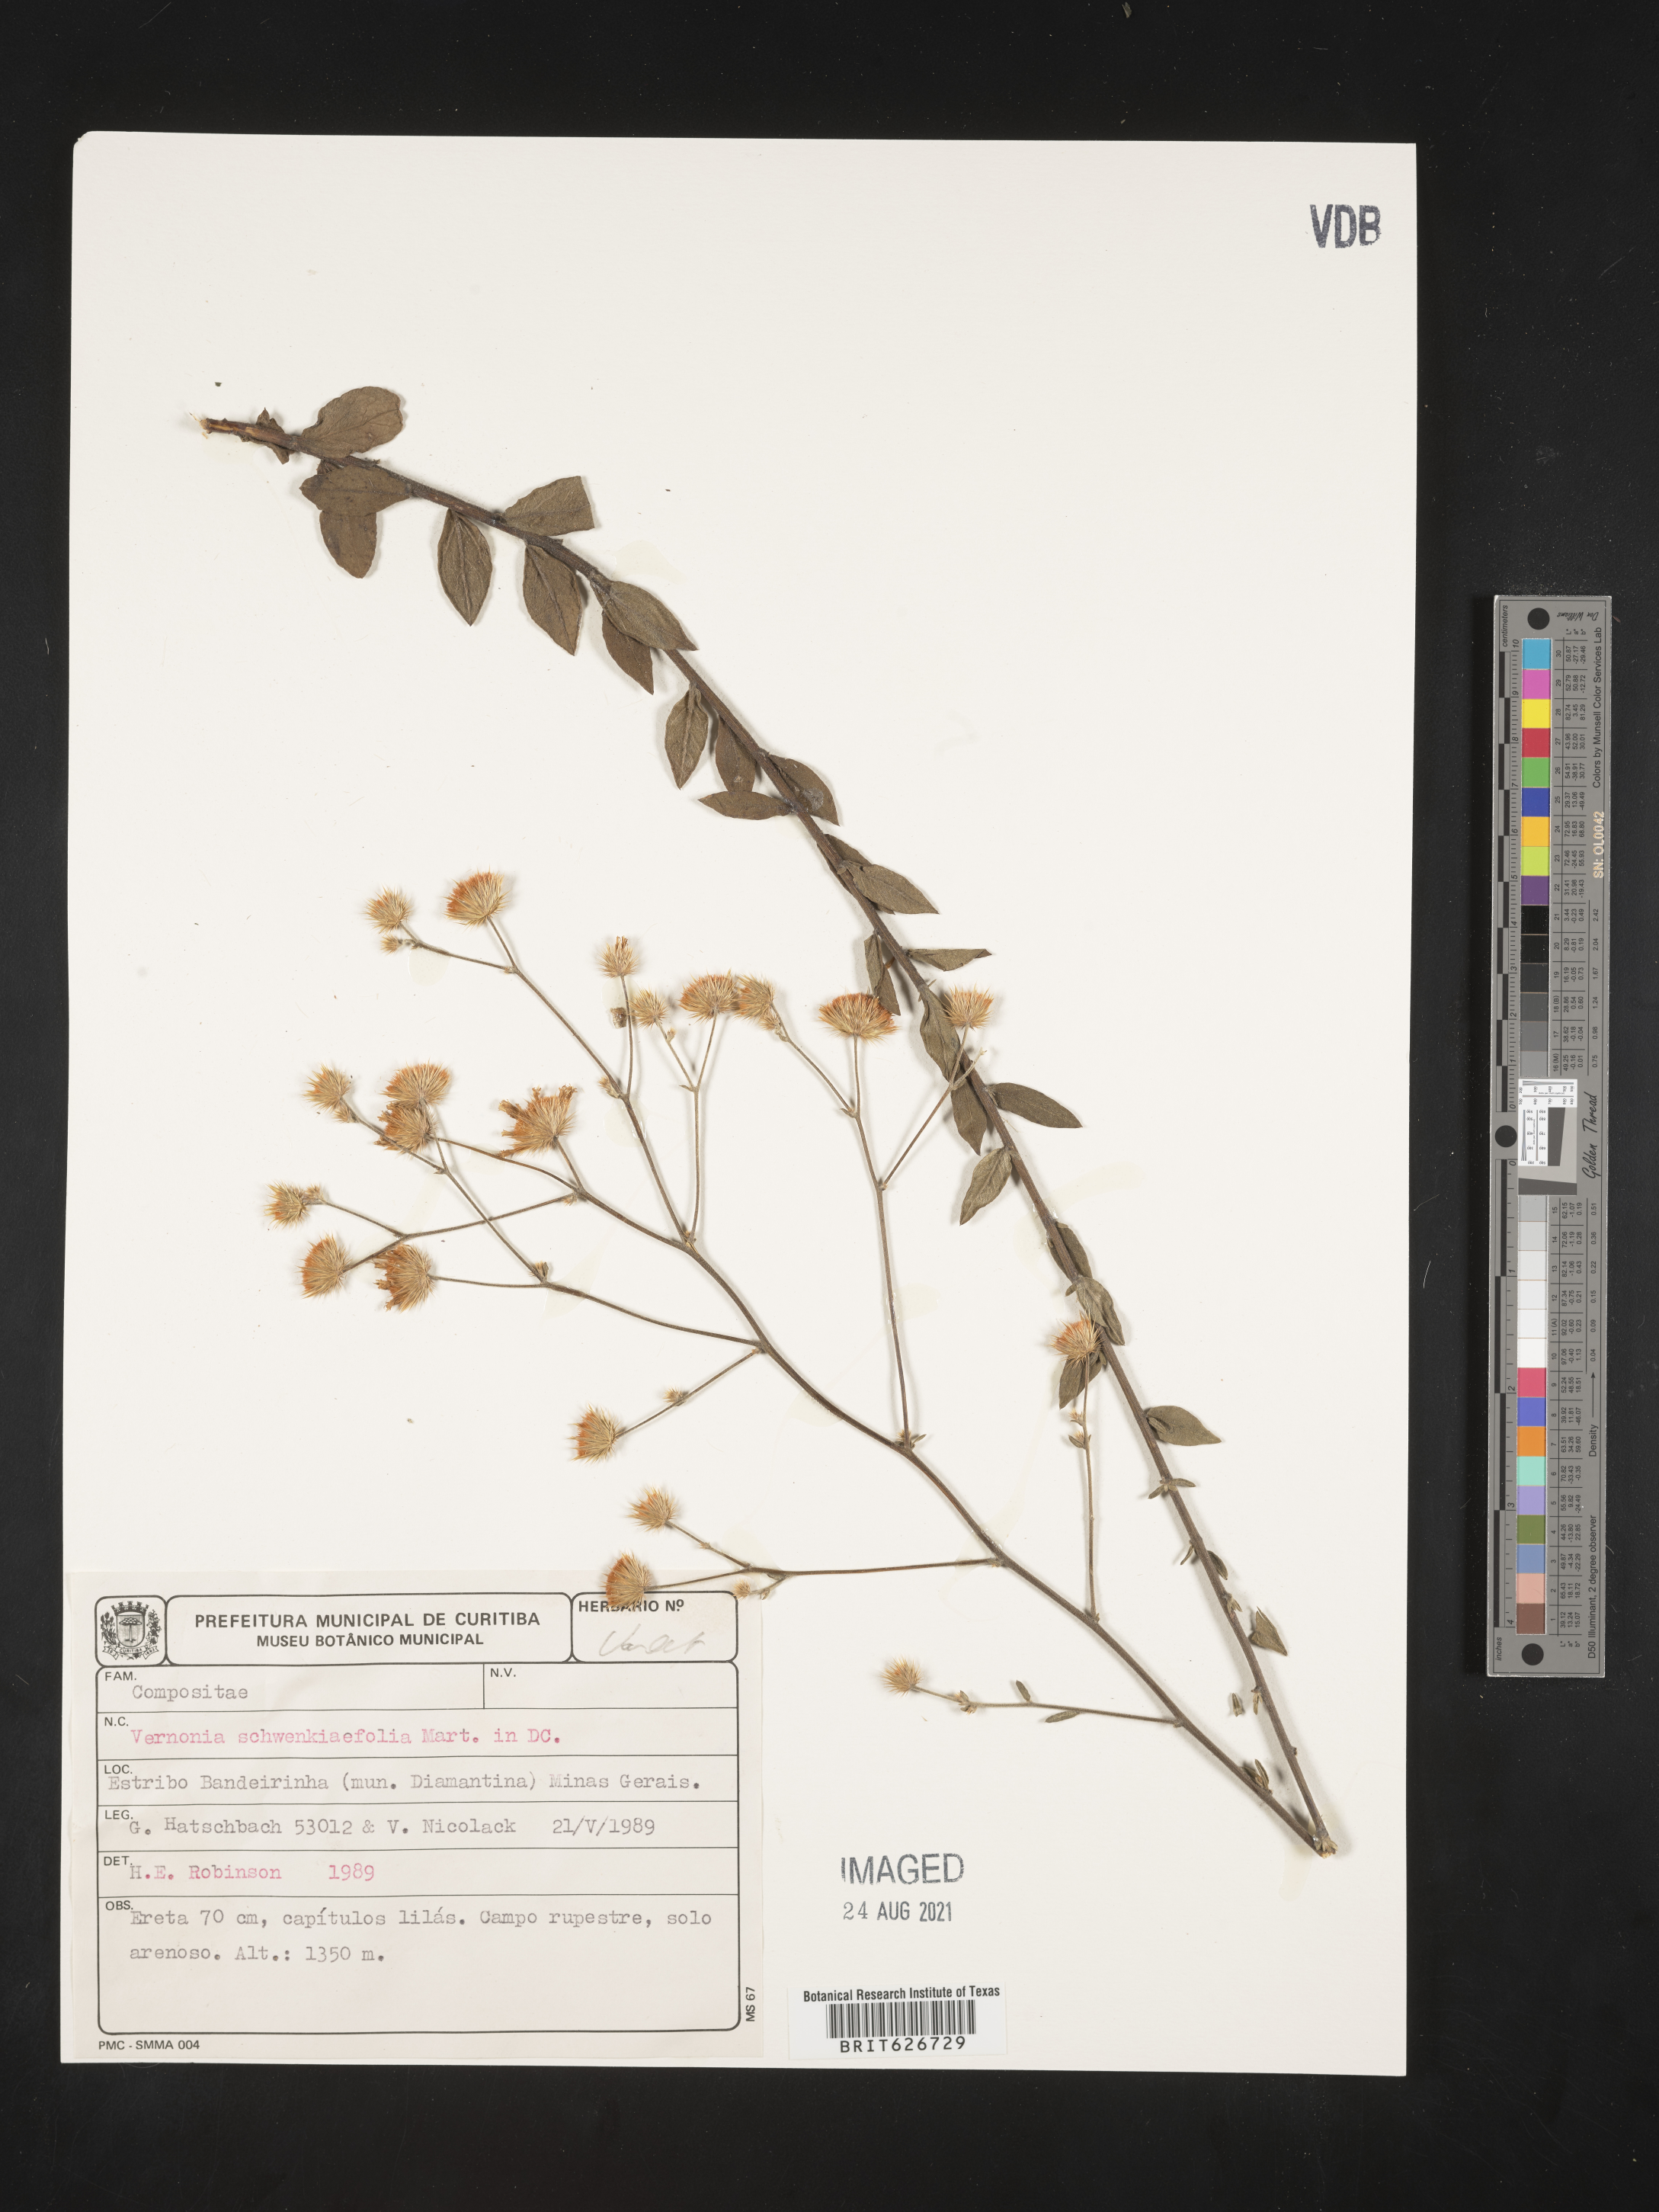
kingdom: Plantae
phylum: Tracheophyta
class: Magnoliopsida
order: Asterales
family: Asteraceae
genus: Vernonia
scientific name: Vernonia schwenkiaefolia
